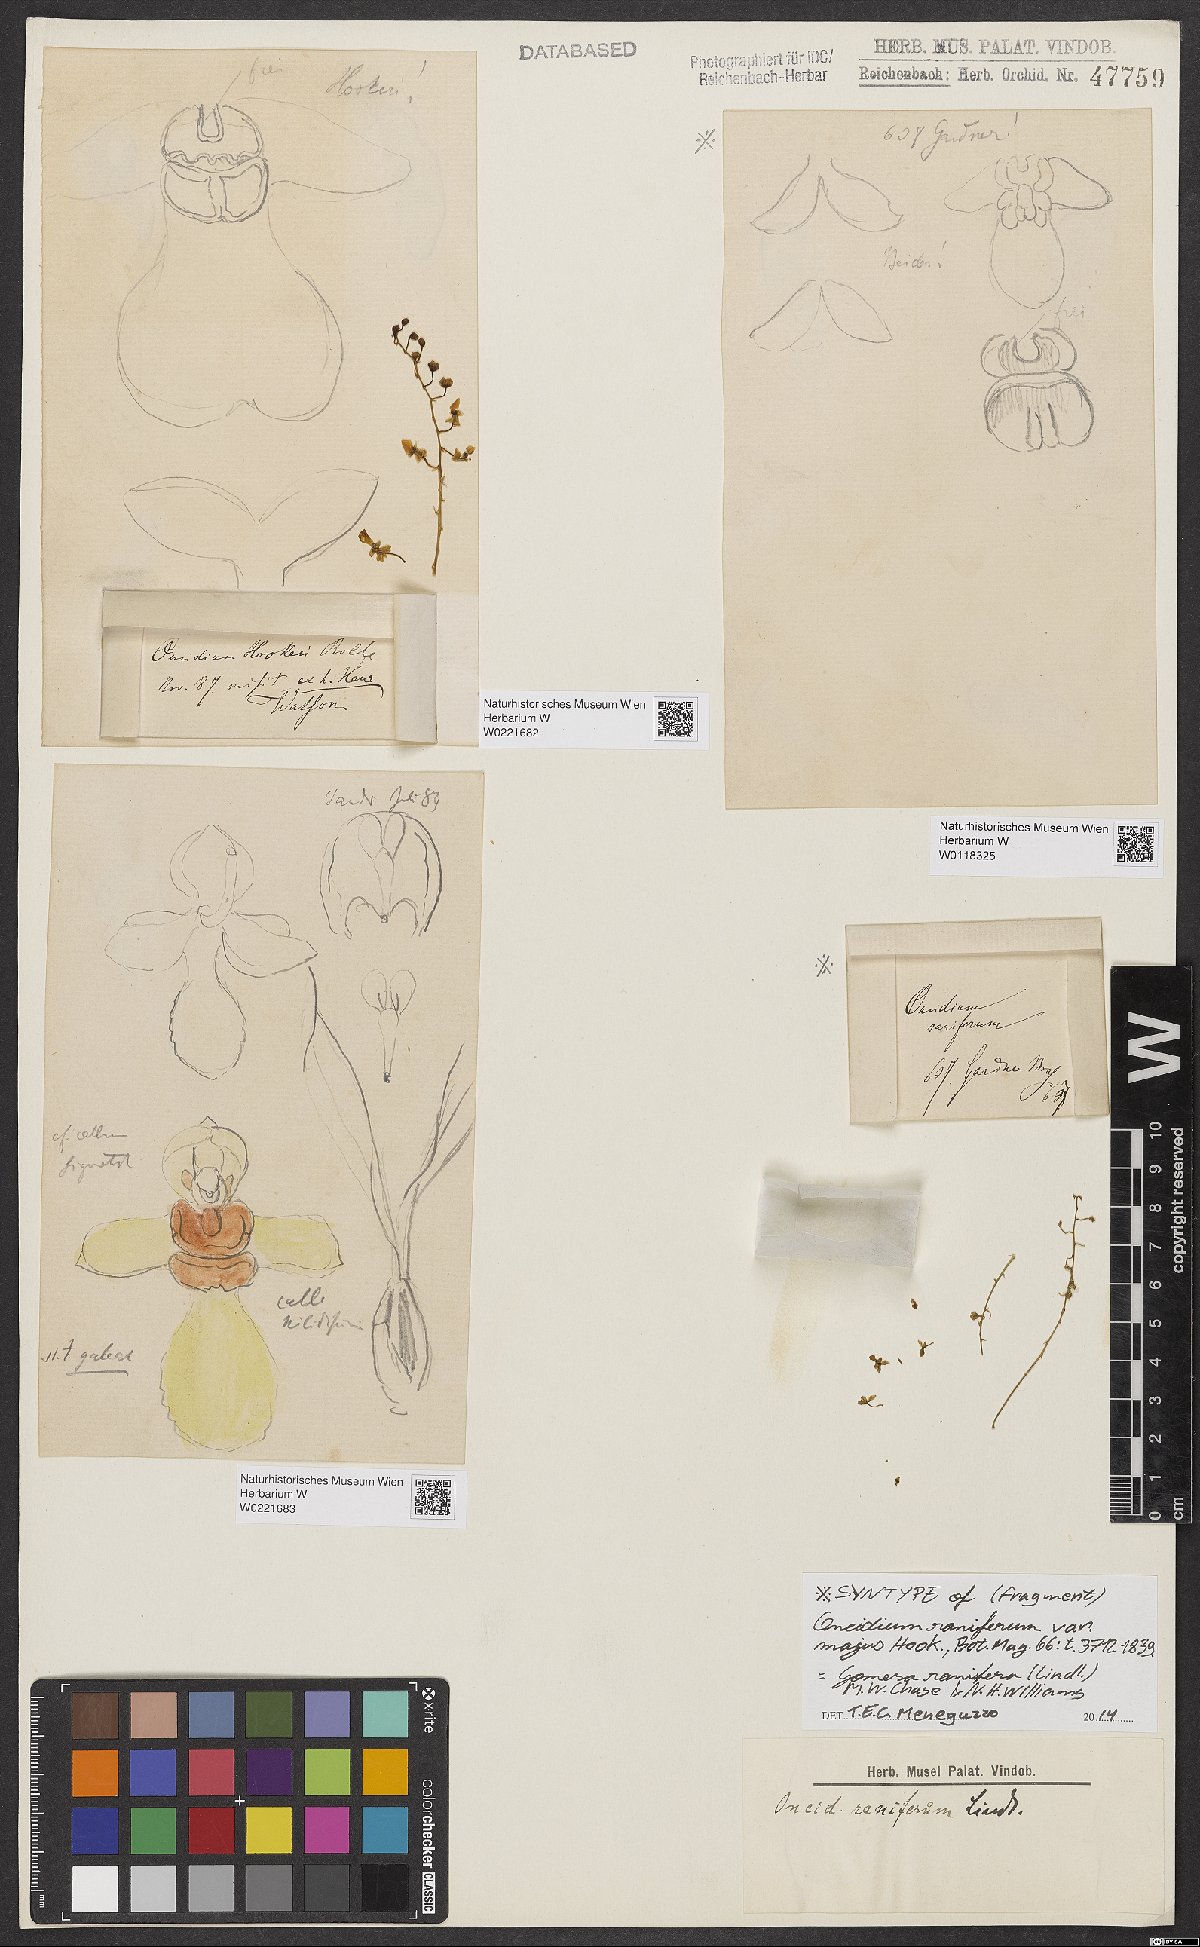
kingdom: Plantae
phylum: Tracheophyta
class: Liliopsida
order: Asparagales
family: Orchidaceae
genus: Gomesa
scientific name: Gomesa ranifera
